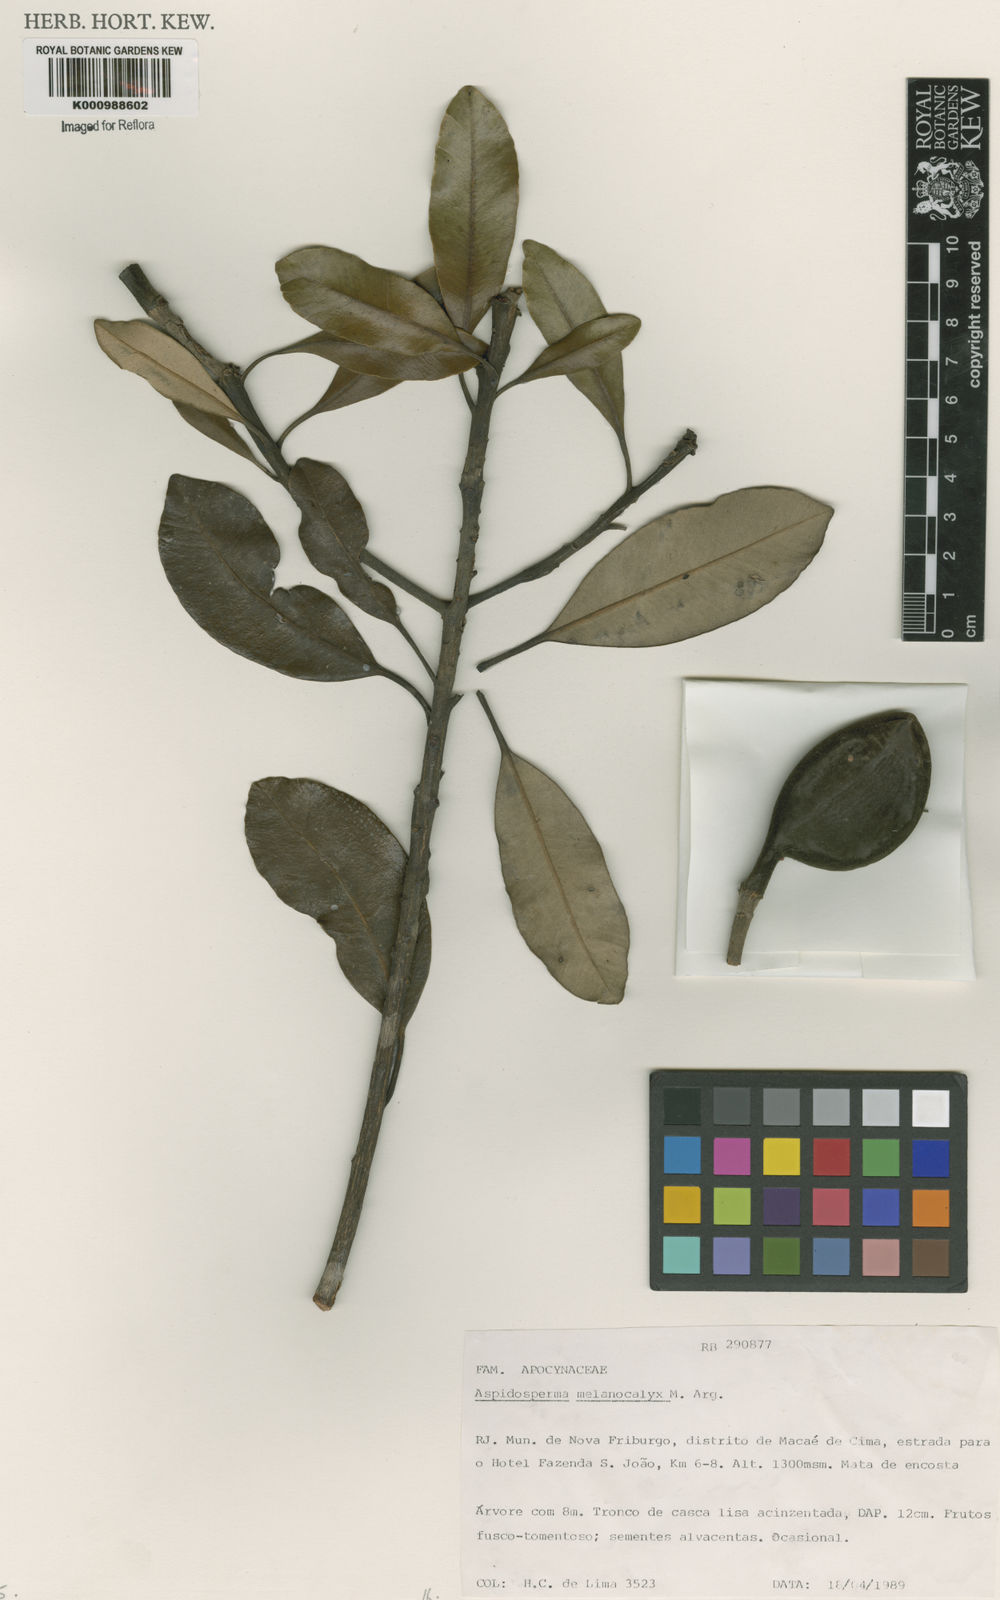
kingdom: Plantae
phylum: Tracheophyta
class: Magnoliopsida
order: Gentianales
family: Apocynaceae
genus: Aspidosperma
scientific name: Aspidosperma
